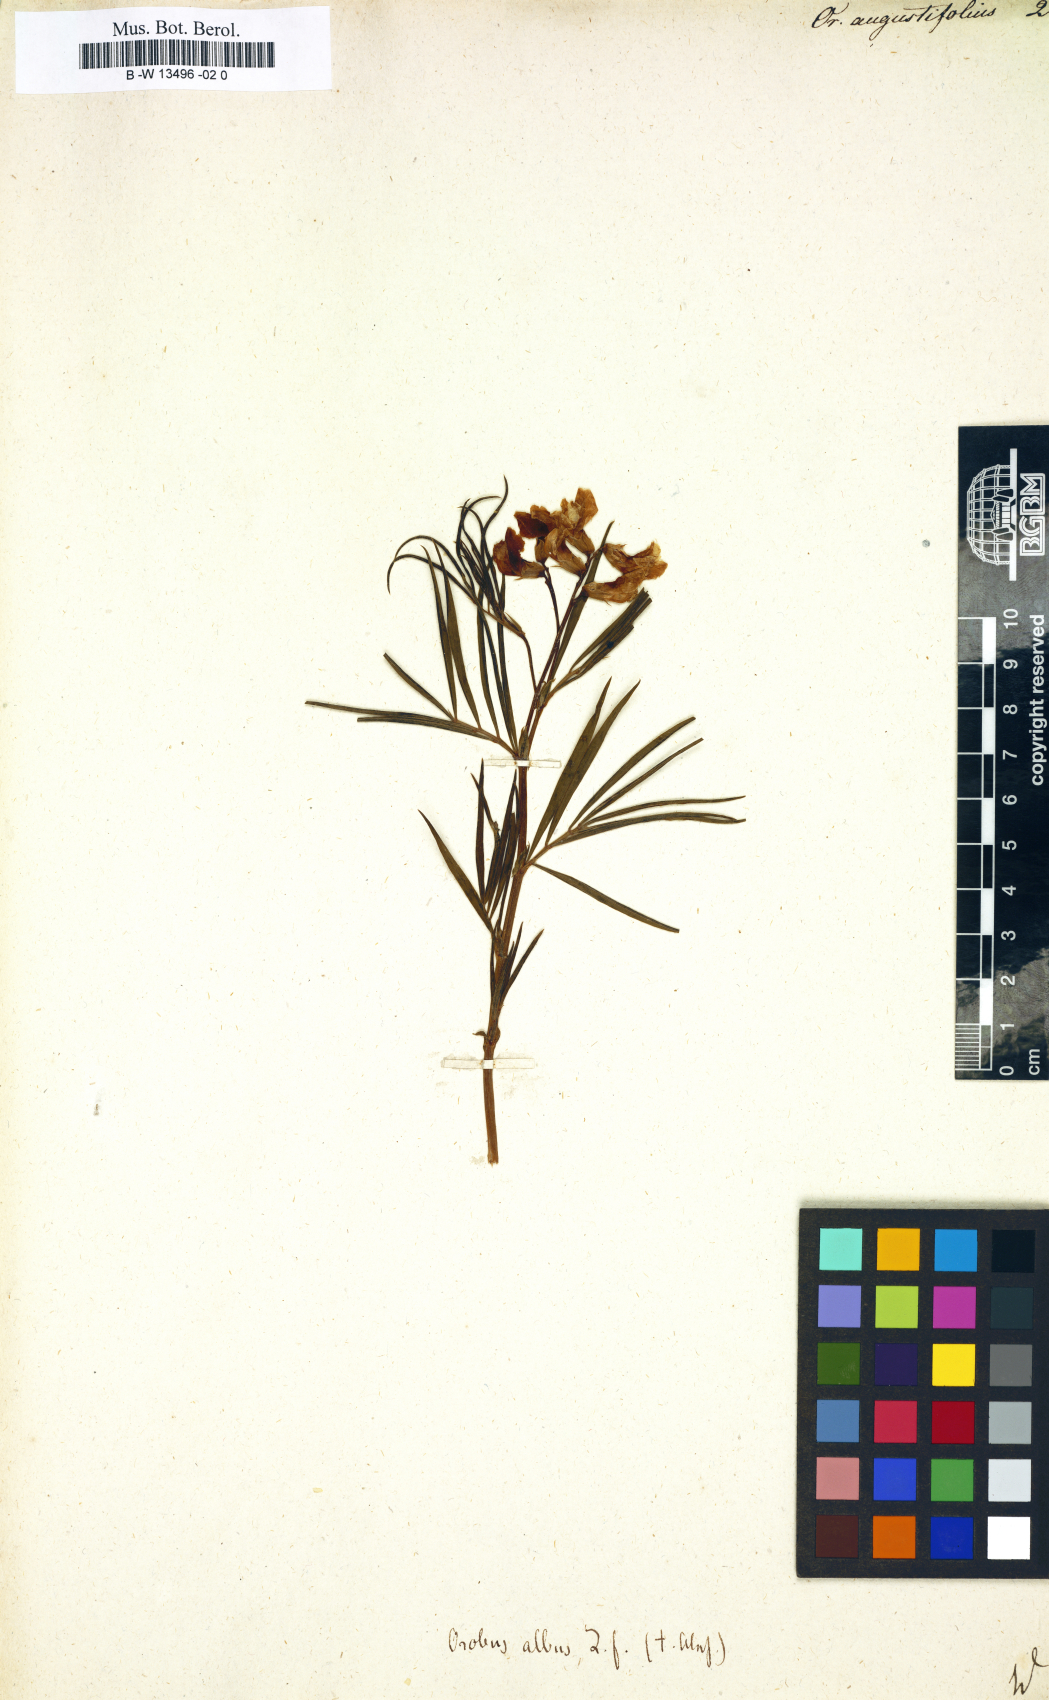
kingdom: Plantae
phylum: Tracheophyta
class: Magnoliopsida
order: Fabales
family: Fabaceae
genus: Lathyrus
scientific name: Lathyrus
